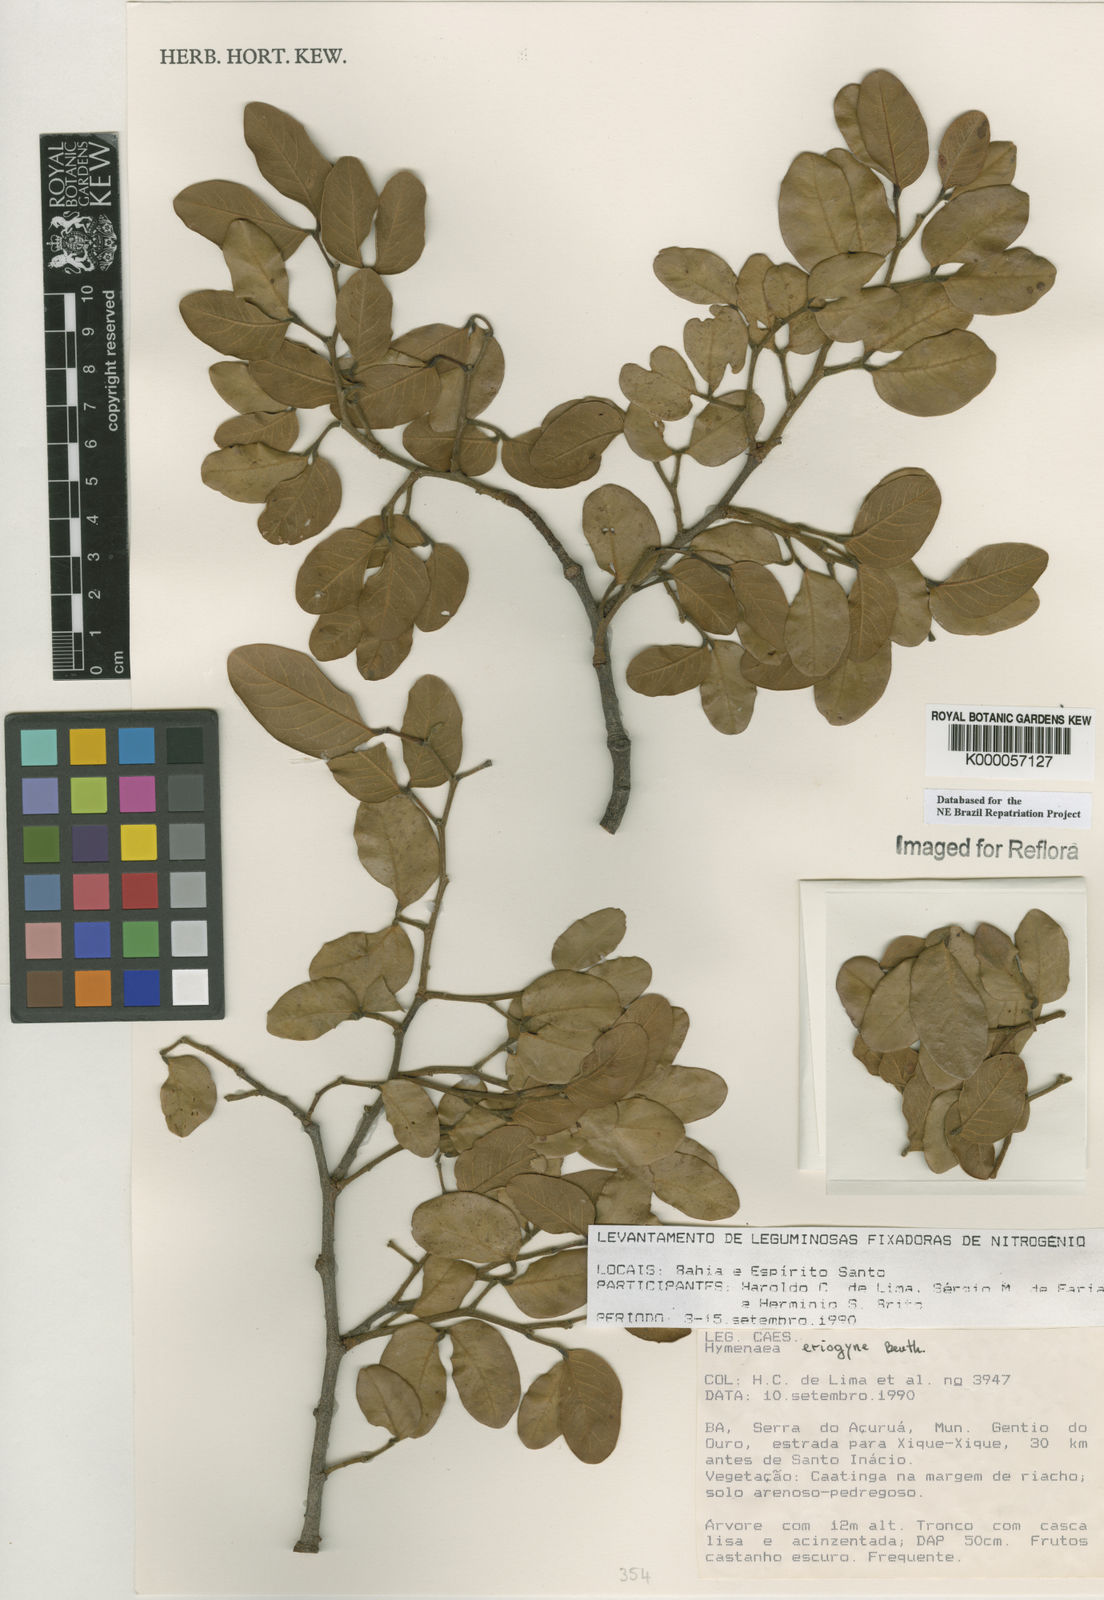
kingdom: Plantae
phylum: Tracheophyta
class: Magnoliopsida
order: Fabales
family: Fabaceae
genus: Hymenaea
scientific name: Hymenaea eriogyne
